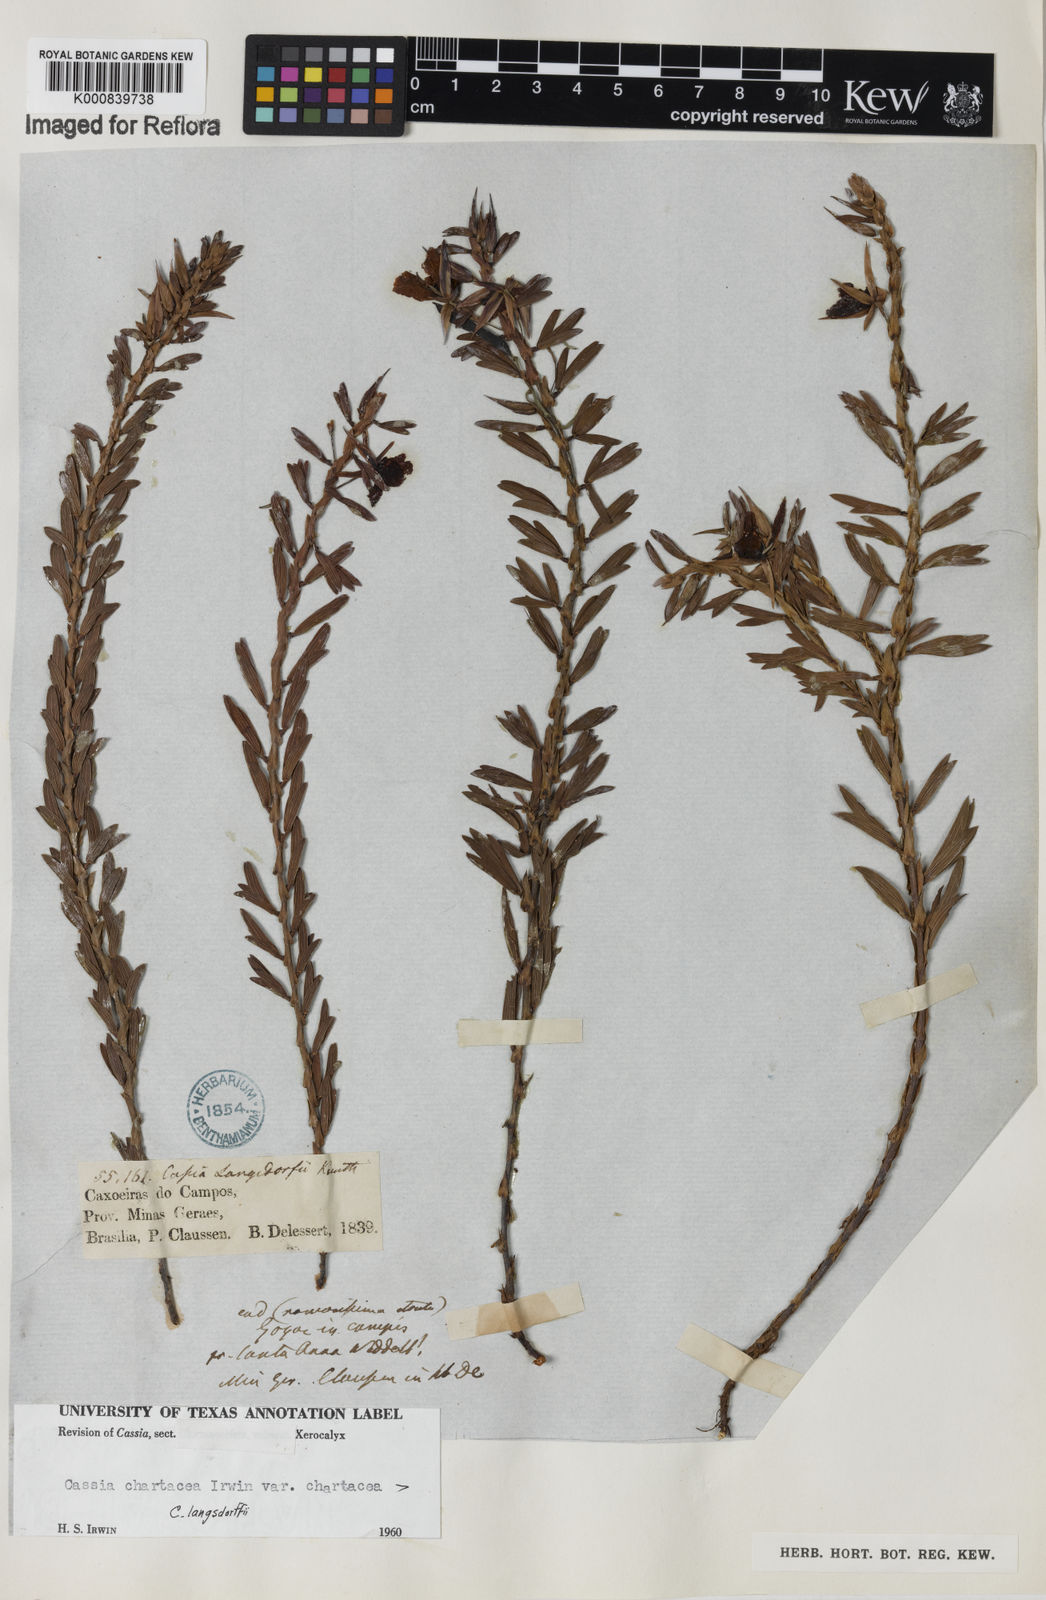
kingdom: Plantae
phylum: Tracheophyta
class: Magnoliopsida
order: Fabales
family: Fabaceae
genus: Chamaecrista
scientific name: Chamaecrista langsdorffii
